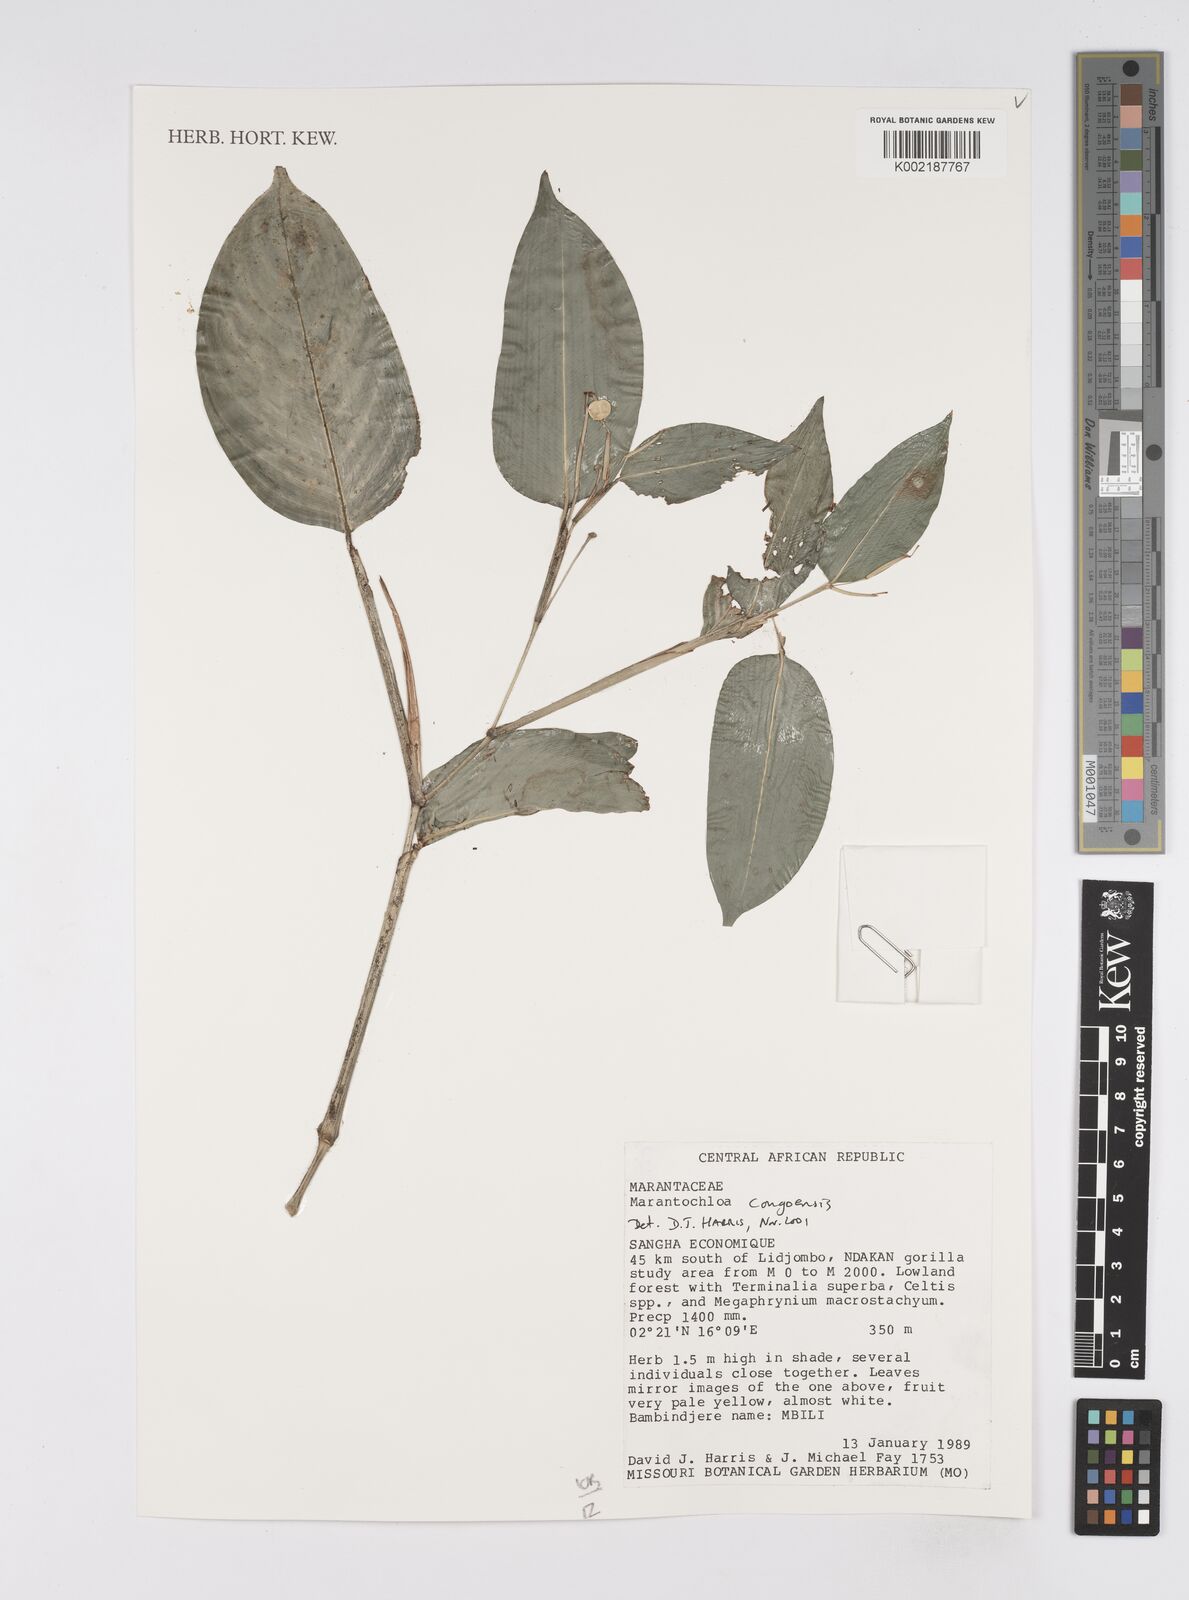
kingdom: Plantae
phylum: Tracheophyta
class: Liliopsida
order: Zingiberales
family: Marantaceae
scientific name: Marantaceae
